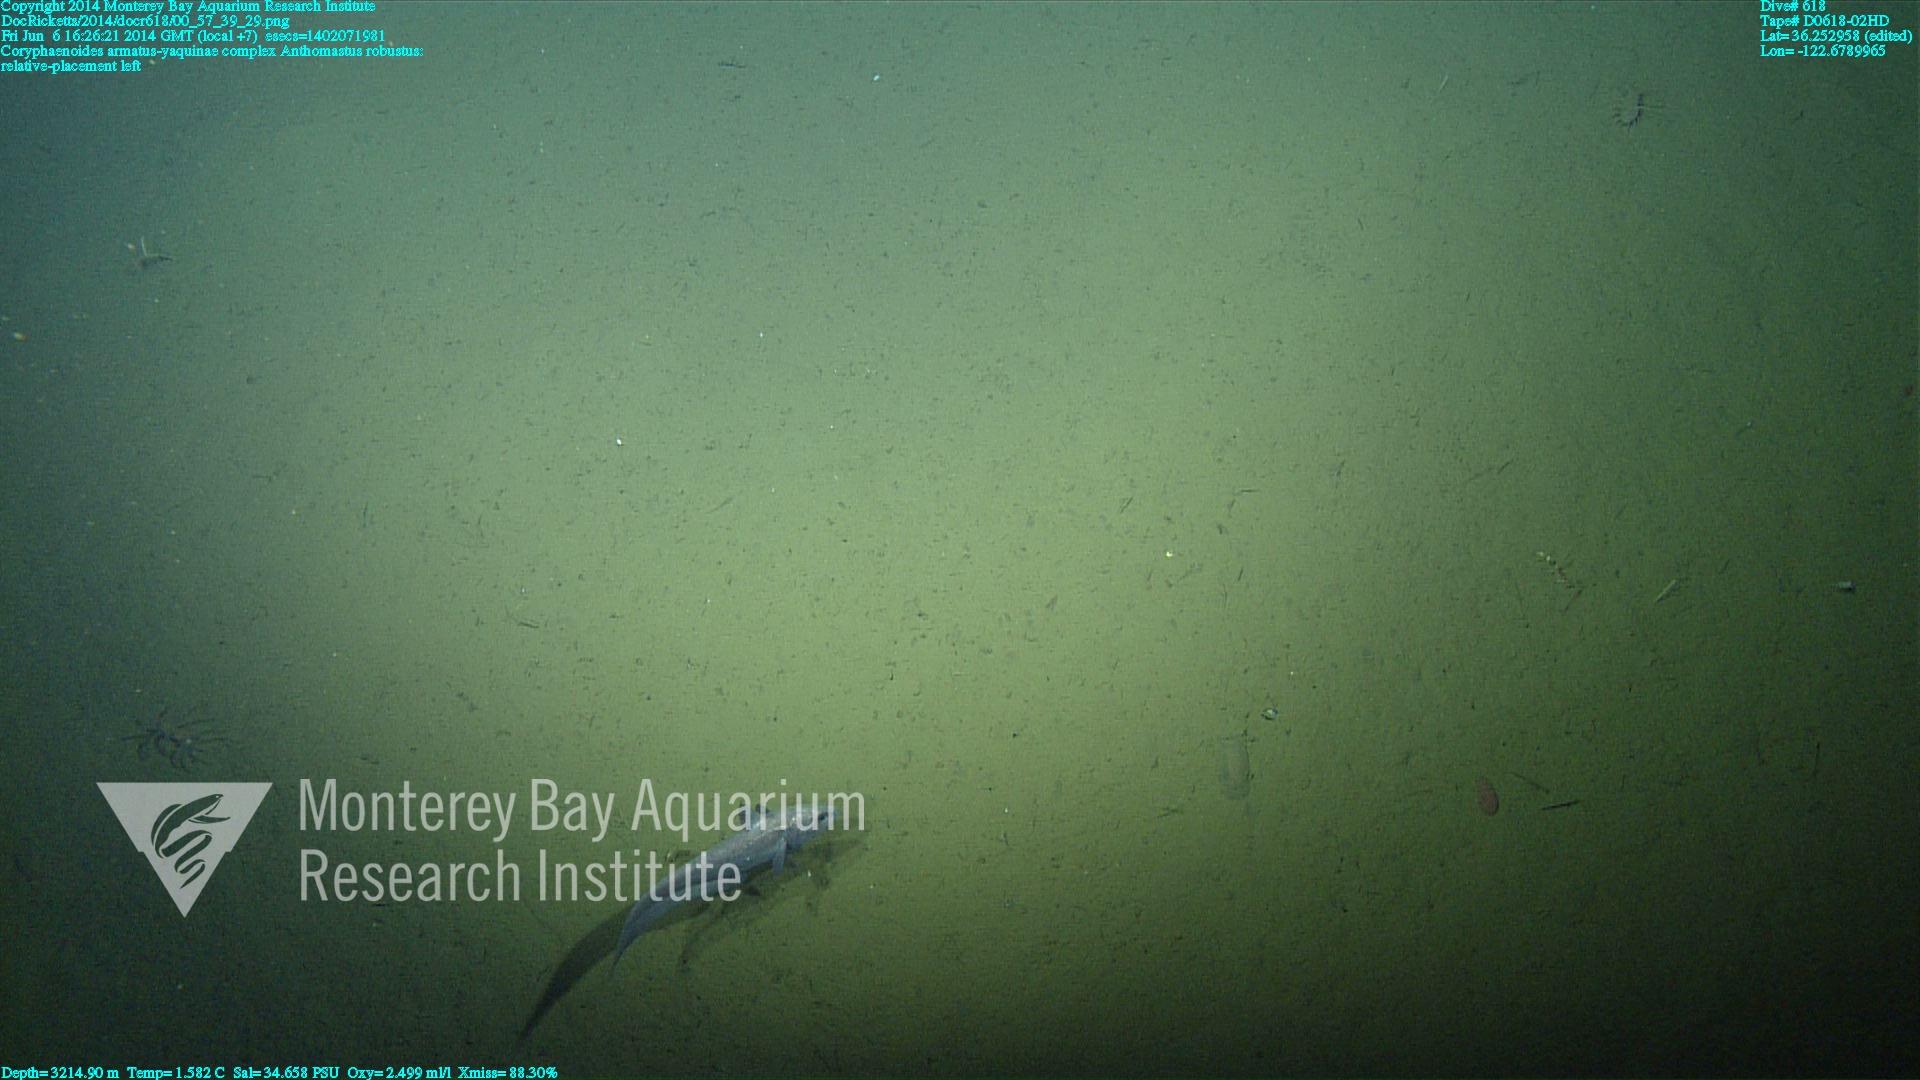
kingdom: Animalia
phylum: Cnidaria
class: Anthozoa
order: Scleralcyonacea
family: Coralliidae
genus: Bathyalcyon
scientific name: Bathyalcyon robustum
